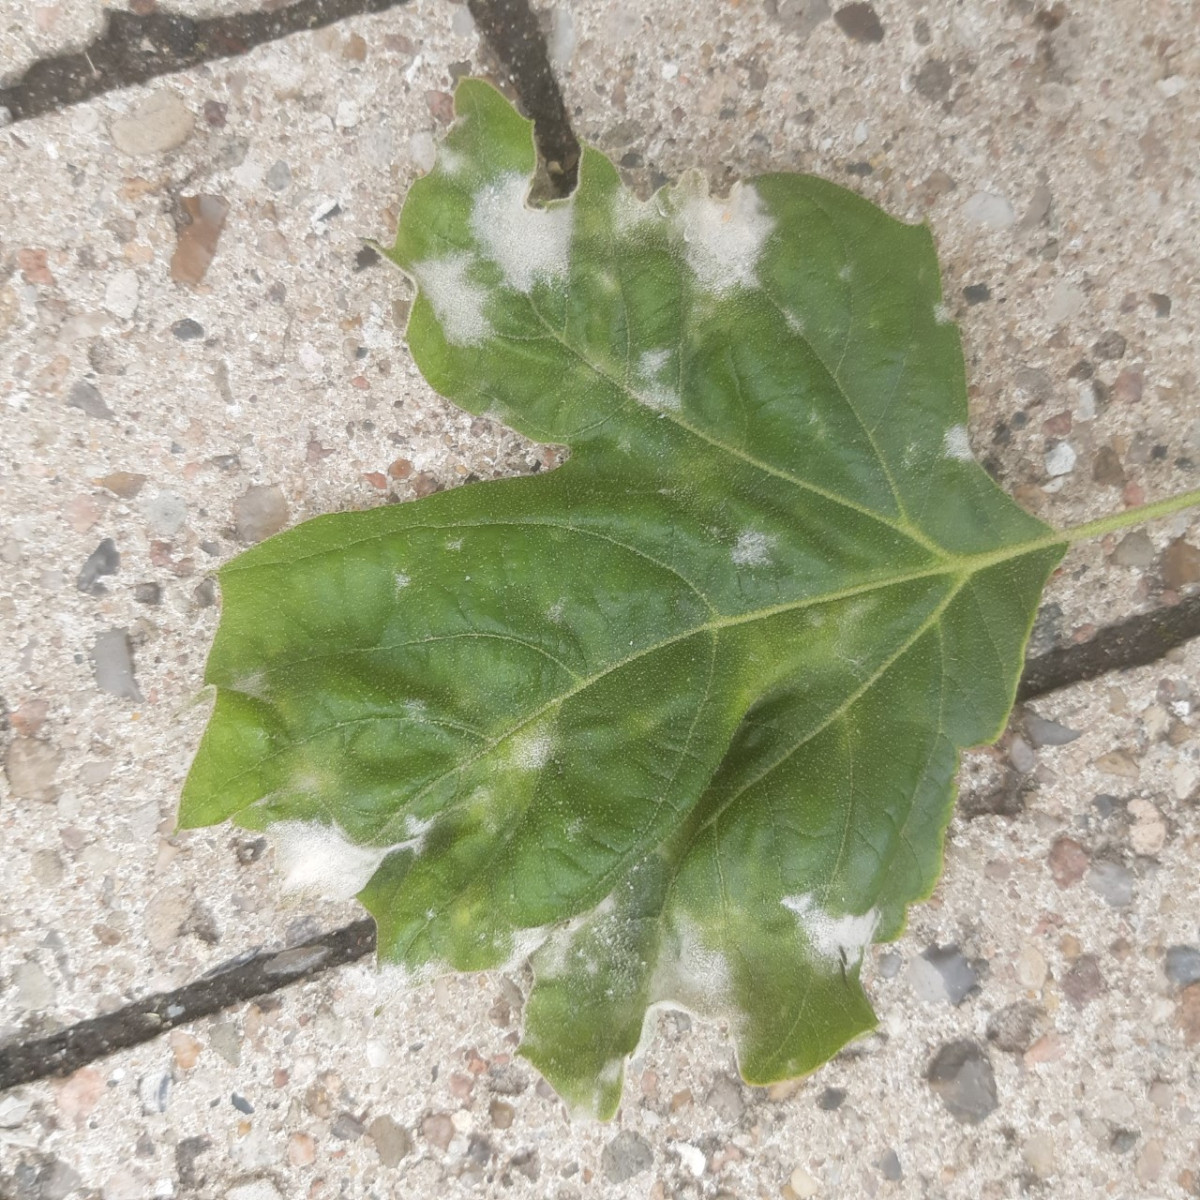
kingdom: Fungi
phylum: Ascomycota
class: Leotiomycetes
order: Helotiales
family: Erysiphaceae
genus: Erysiphe
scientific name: Erysiphe platani
